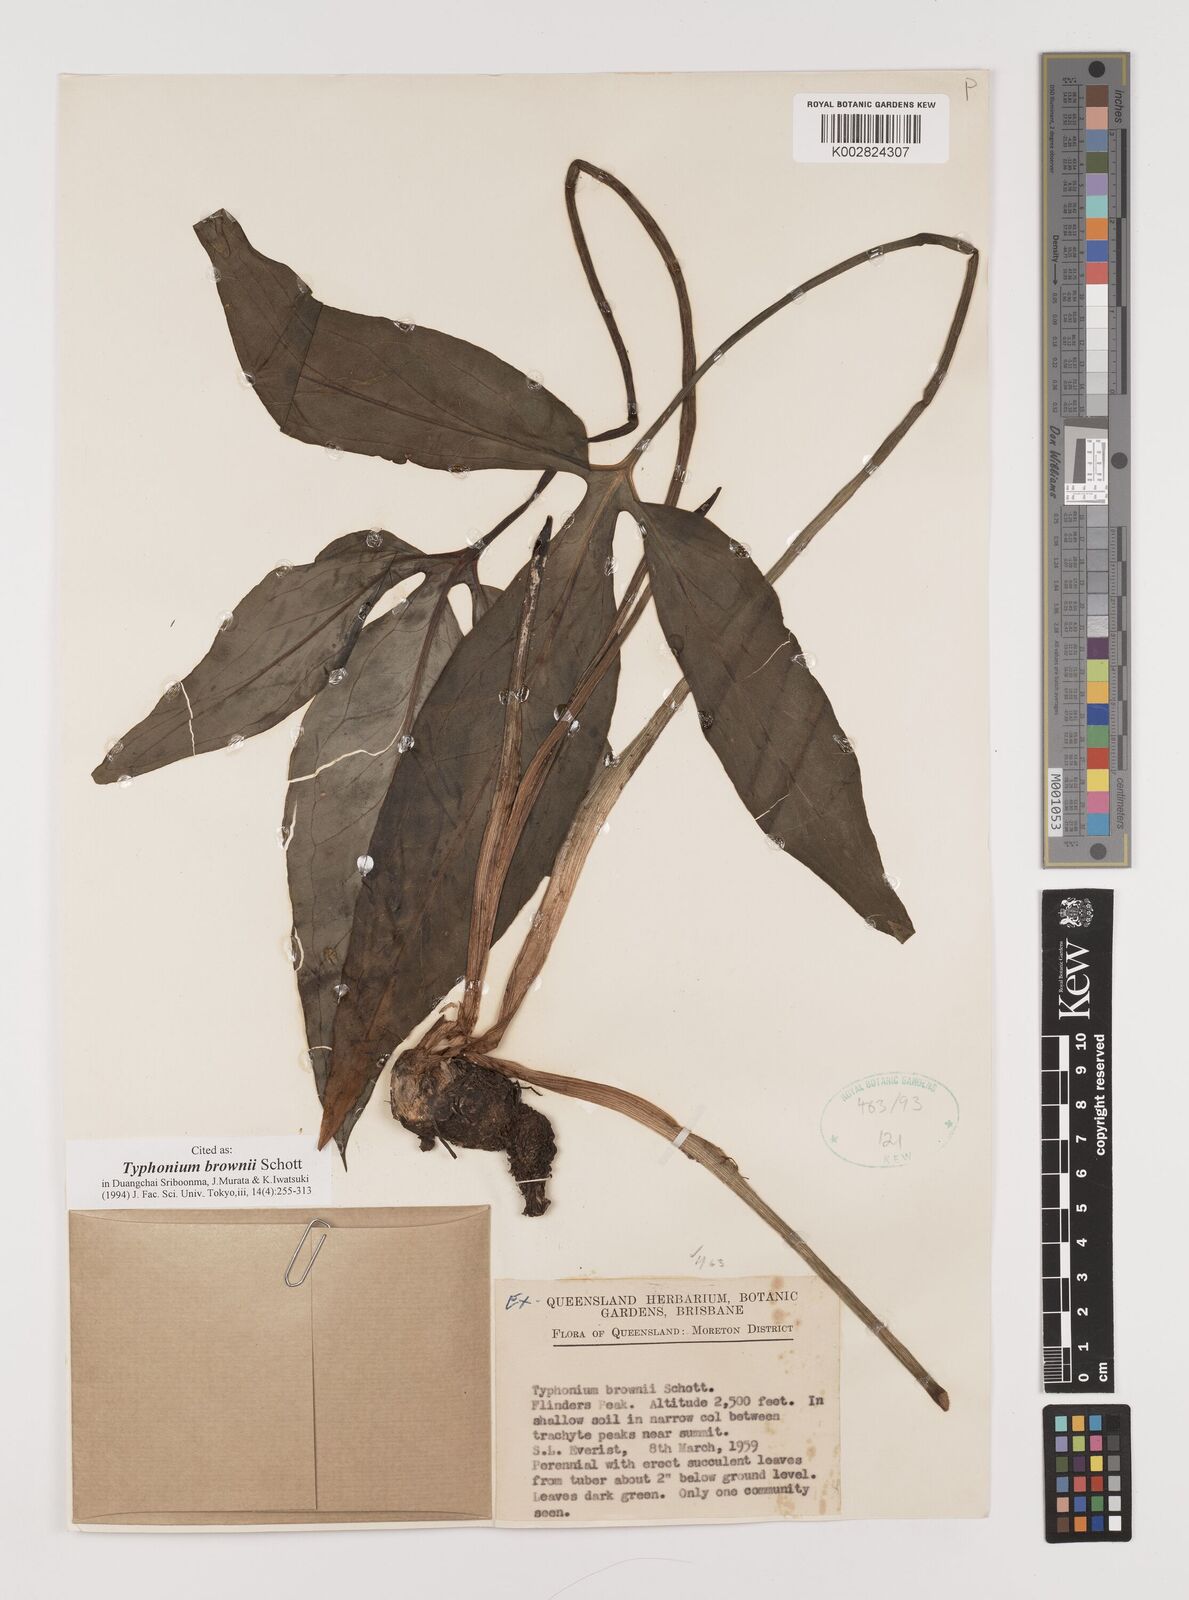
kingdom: Plantae
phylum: Tracheophyta
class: Liliopsida
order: Alismatales
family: Araceae
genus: Typhonium
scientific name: Typhonium brownii
